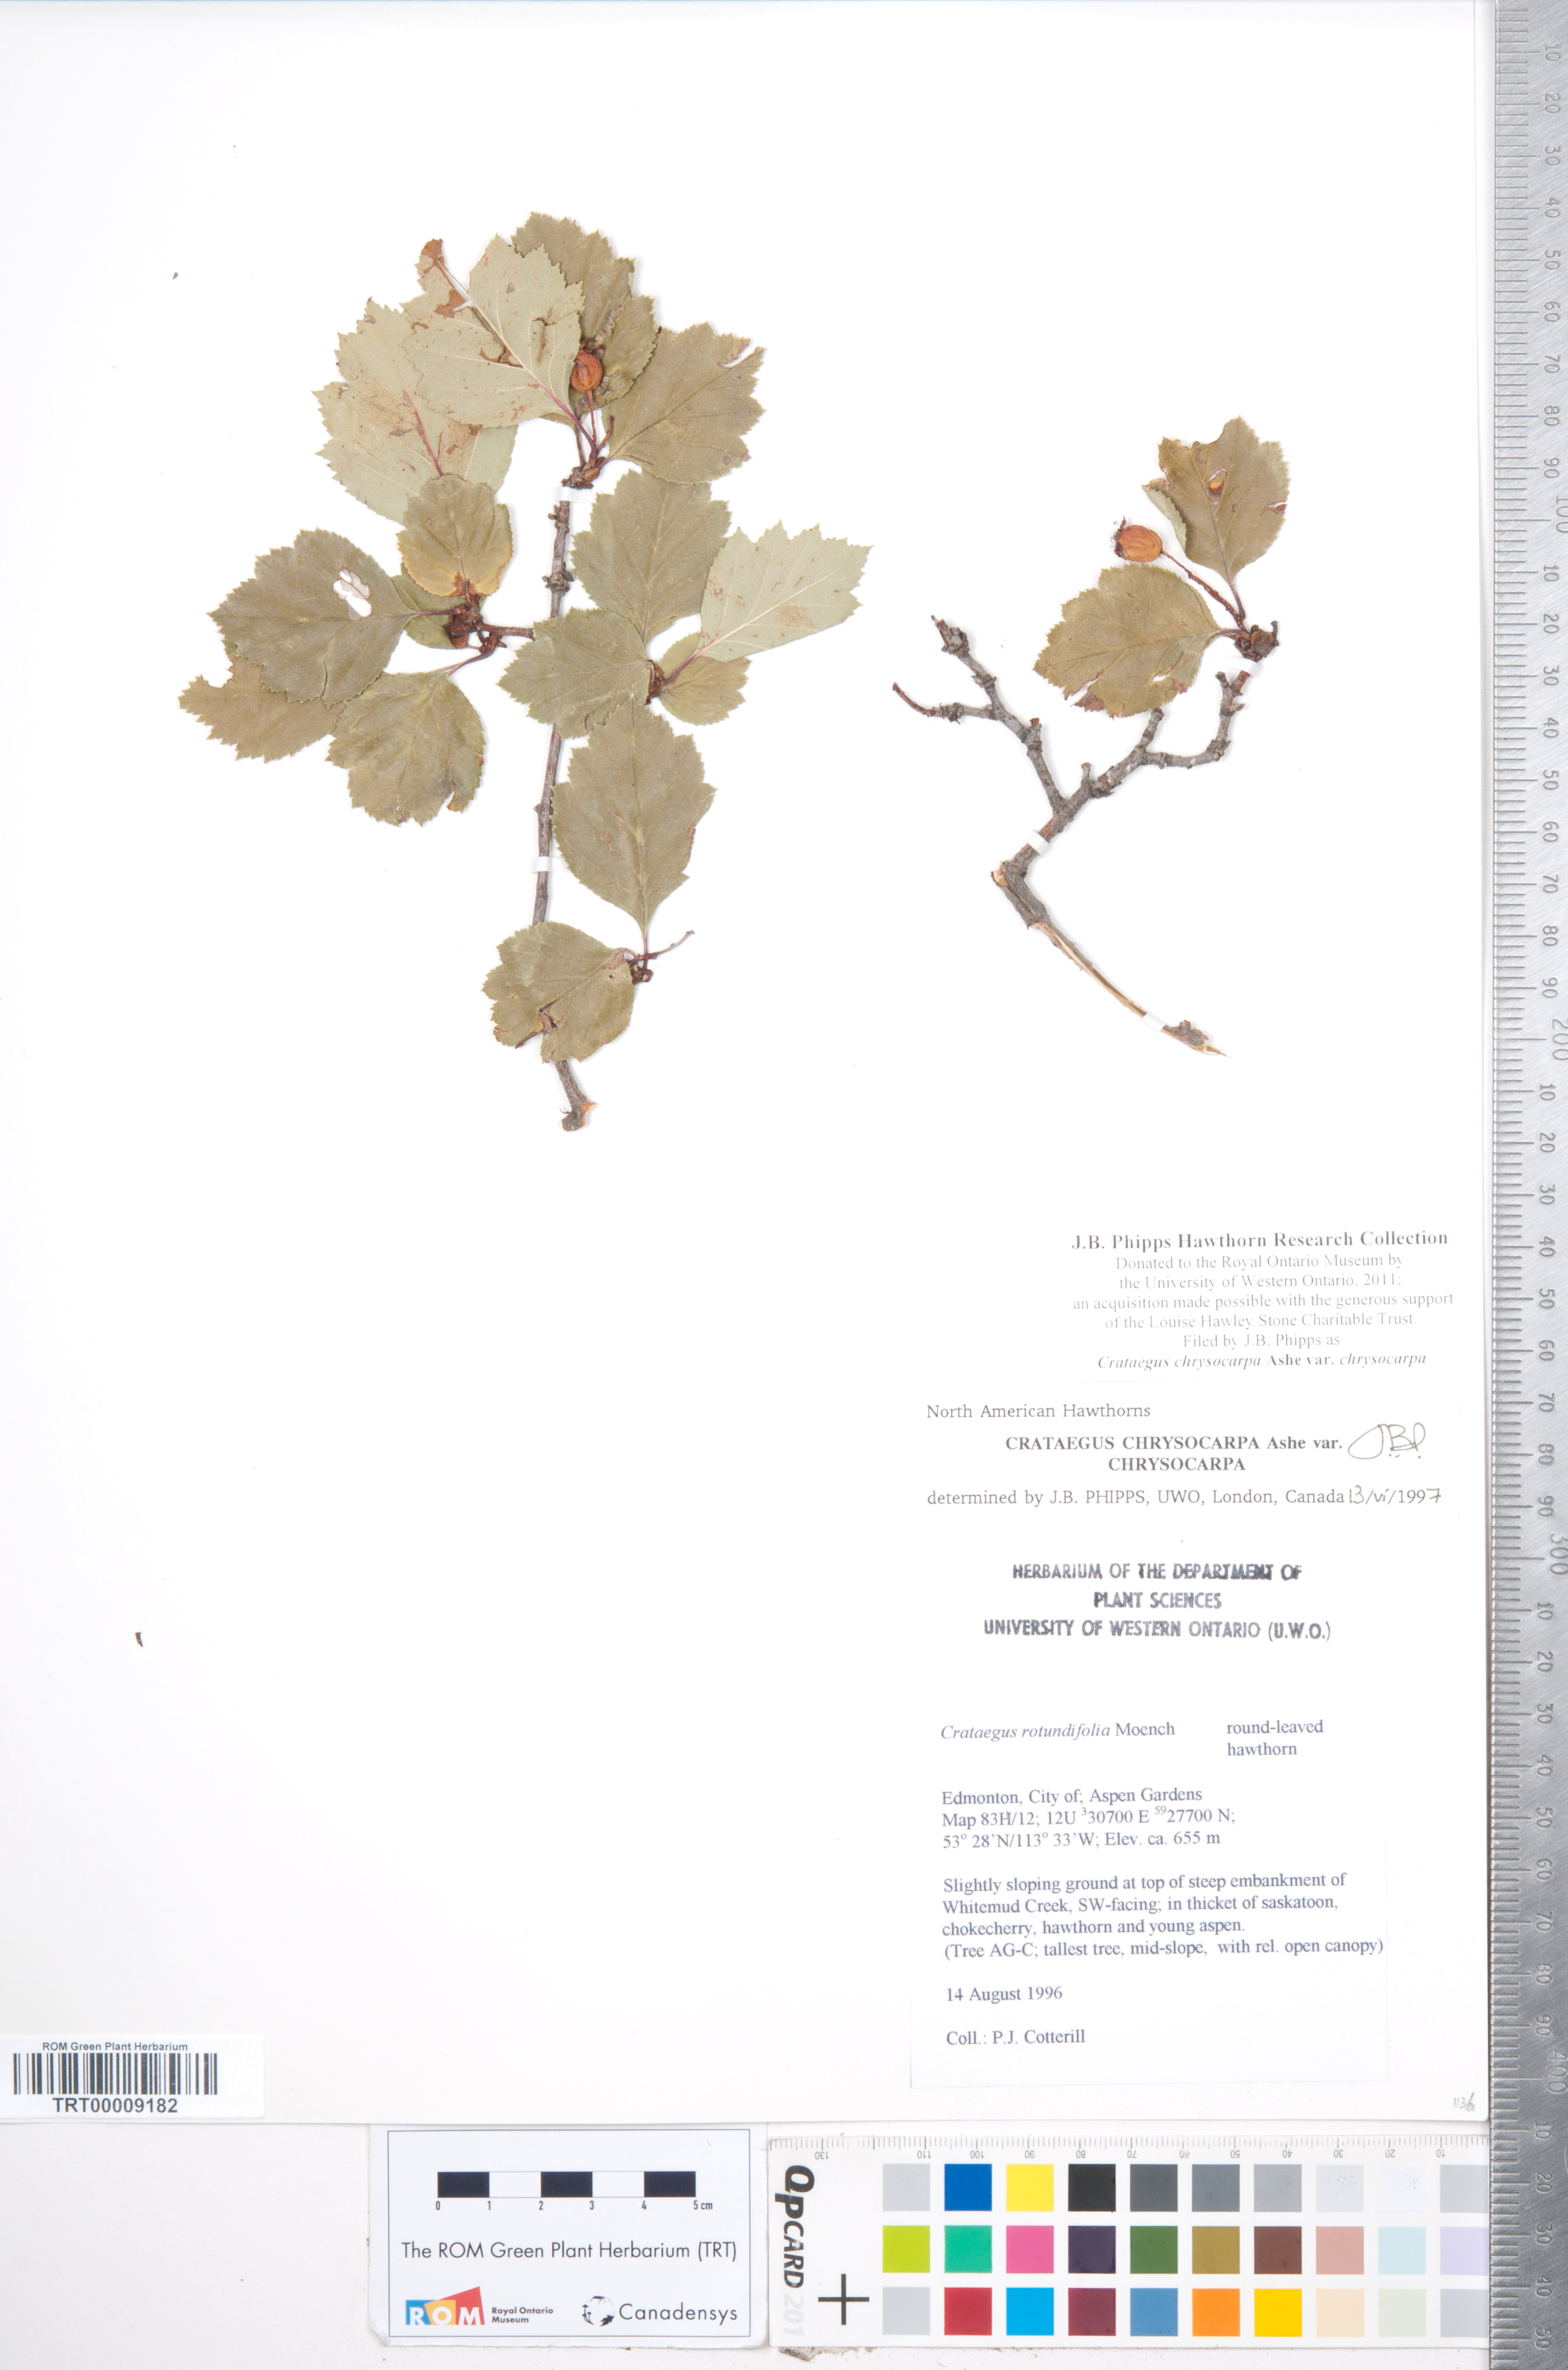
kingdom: Plantae
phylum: Tracheophyta
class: Magnoliopsida
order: Rosales
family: Rosaceae
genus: Crataegus
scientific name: Crataegus chrysocarpa
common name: Fire-berry hawthorn
